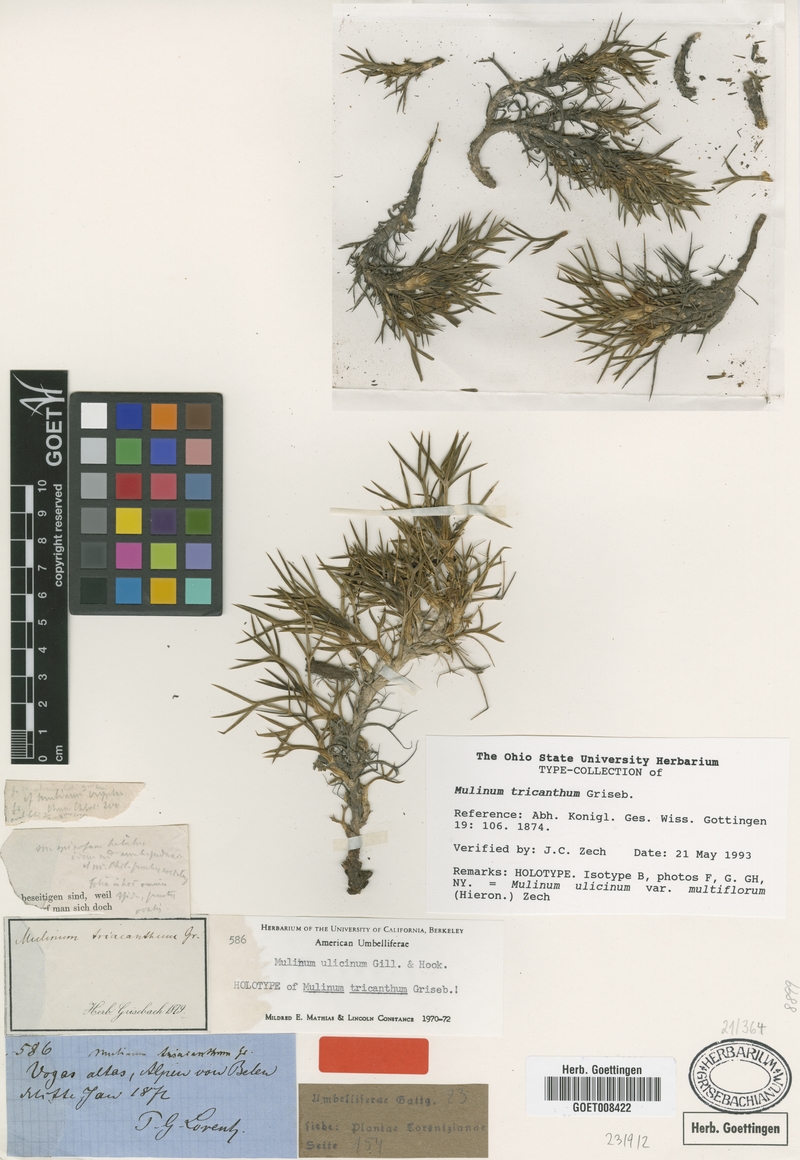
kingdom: Plantae
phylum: Tracheophyta
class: Magnoliopsida
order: Apiales
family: Apiaceae
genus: Azorella
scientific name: Azorella ulicina
